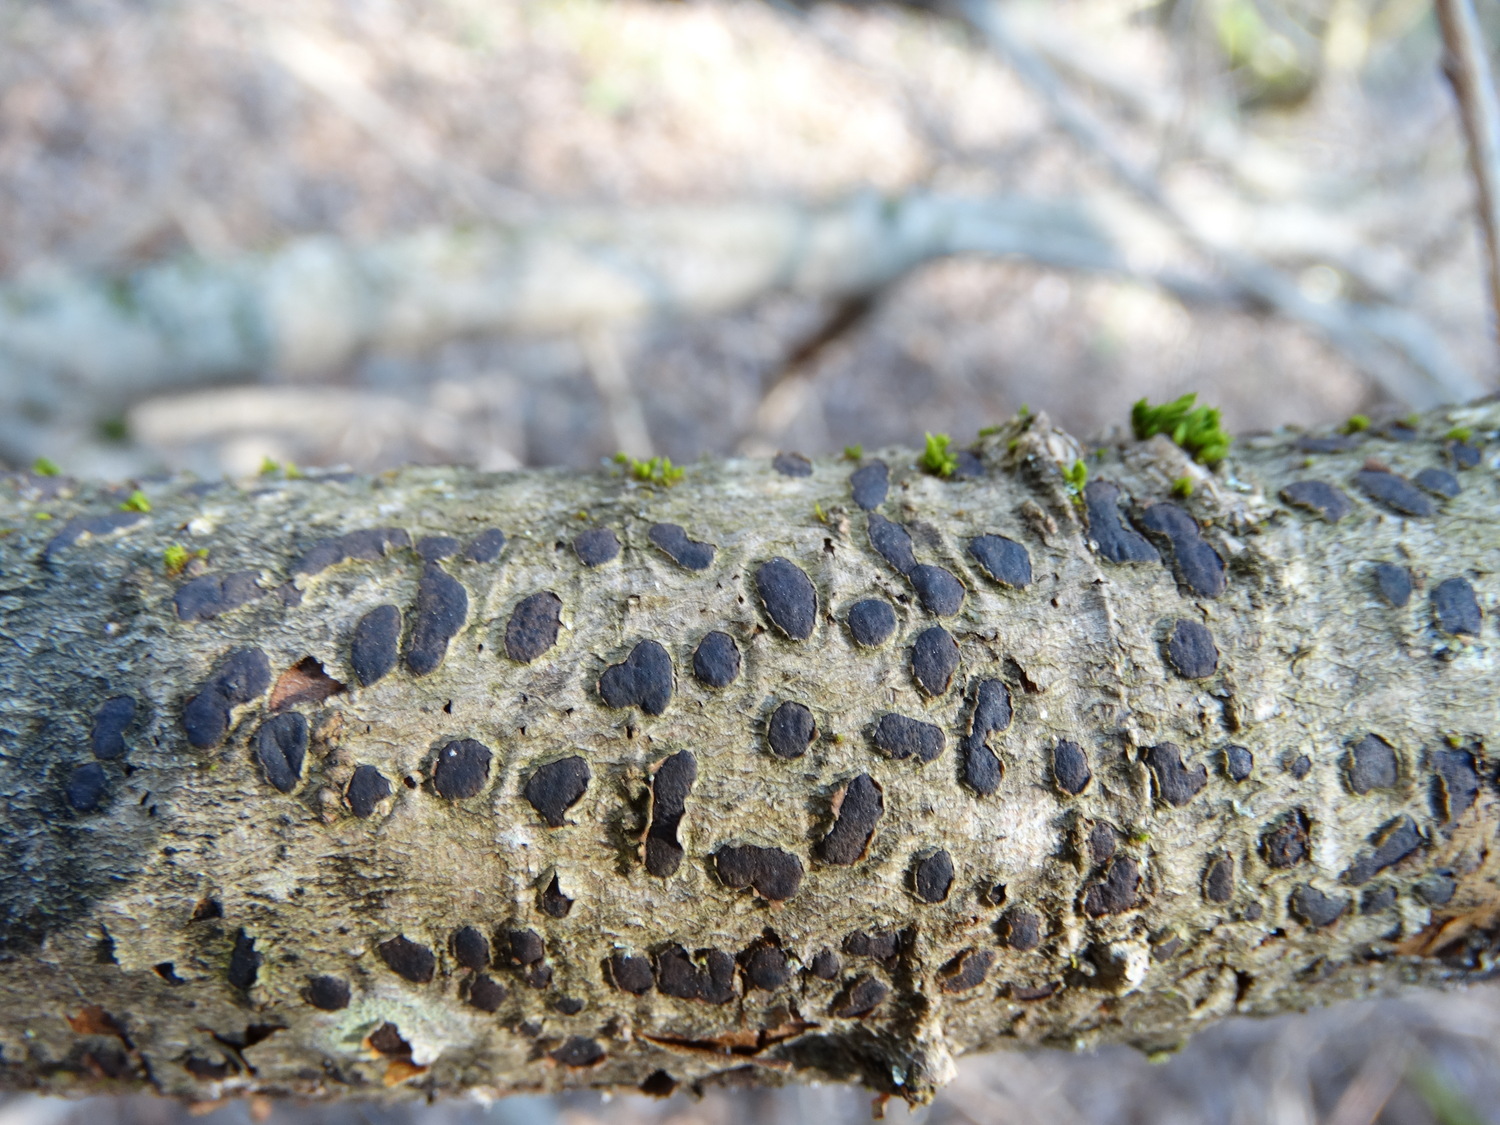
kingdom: Fungi
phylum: Ascomycota
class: Sordariomycetes
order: Xylariales
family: Diatrypaceae
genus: Diatrype
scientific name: Diatrype bullata
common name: pile-kulskorpe
